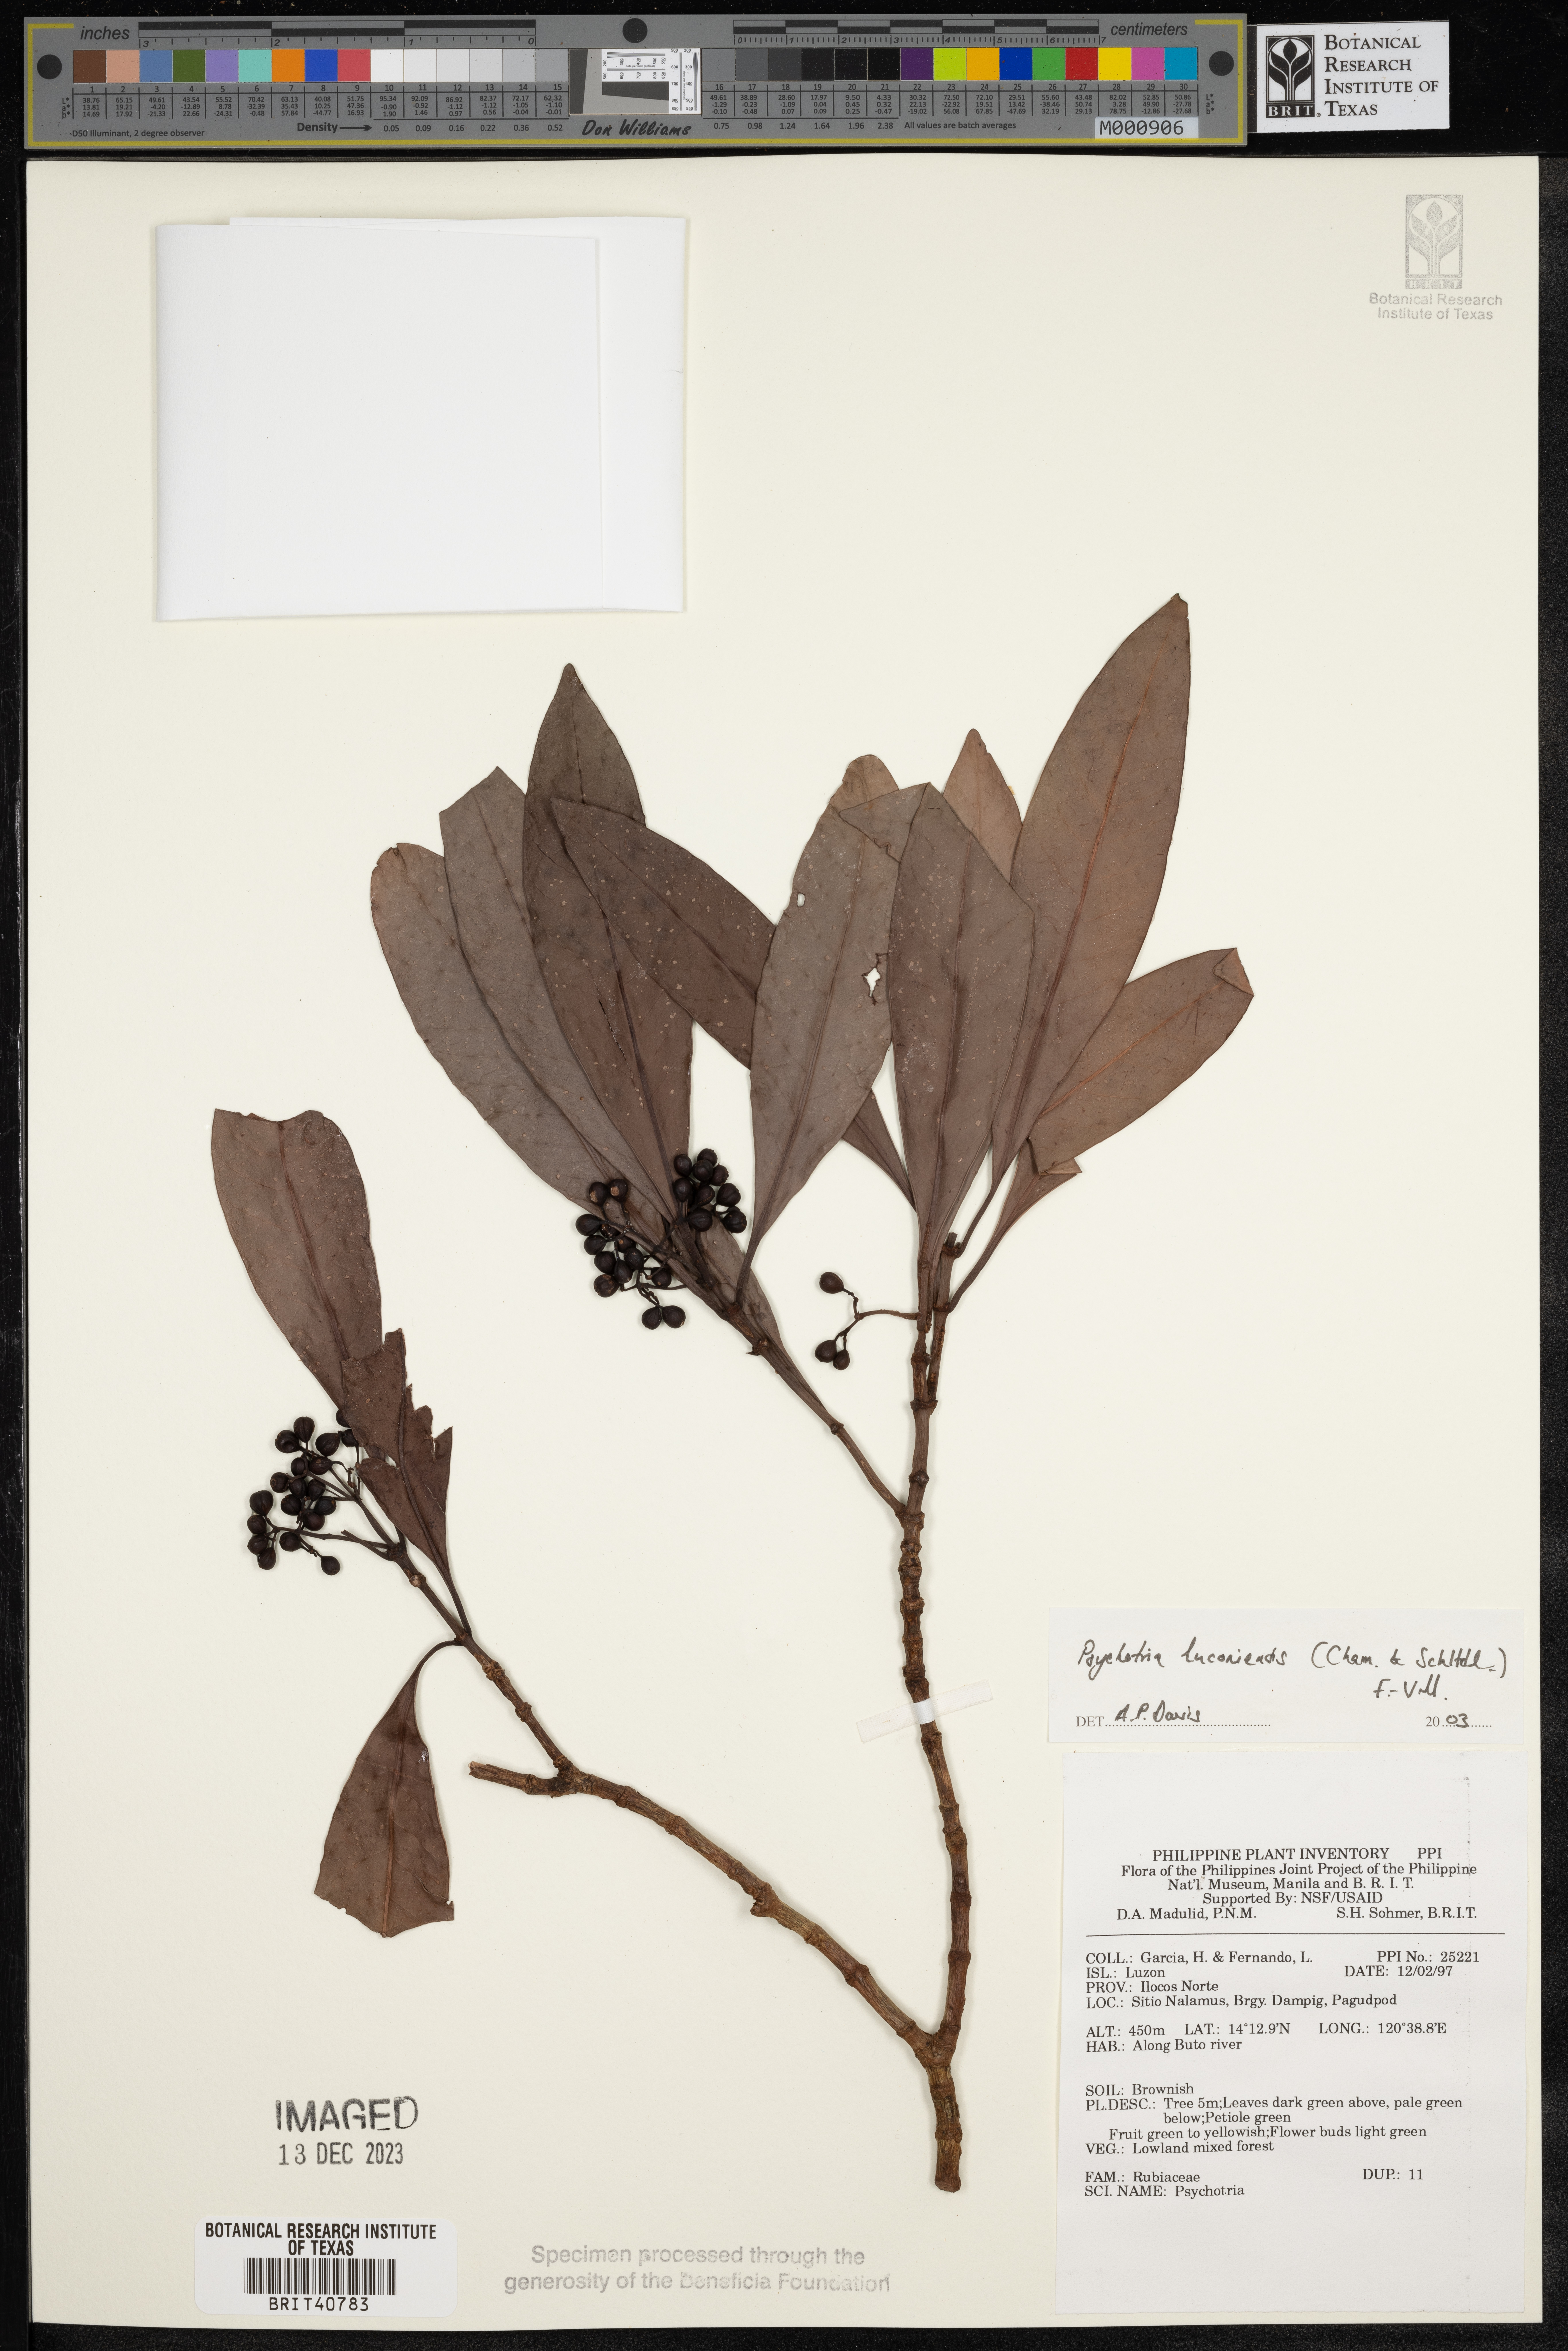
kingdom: Plantae
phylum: Tracheophyta
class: Magnoliopsida
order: Gentianales
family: Rubiaceae
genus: Psychotria
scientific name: Psychotria luzoniensis
